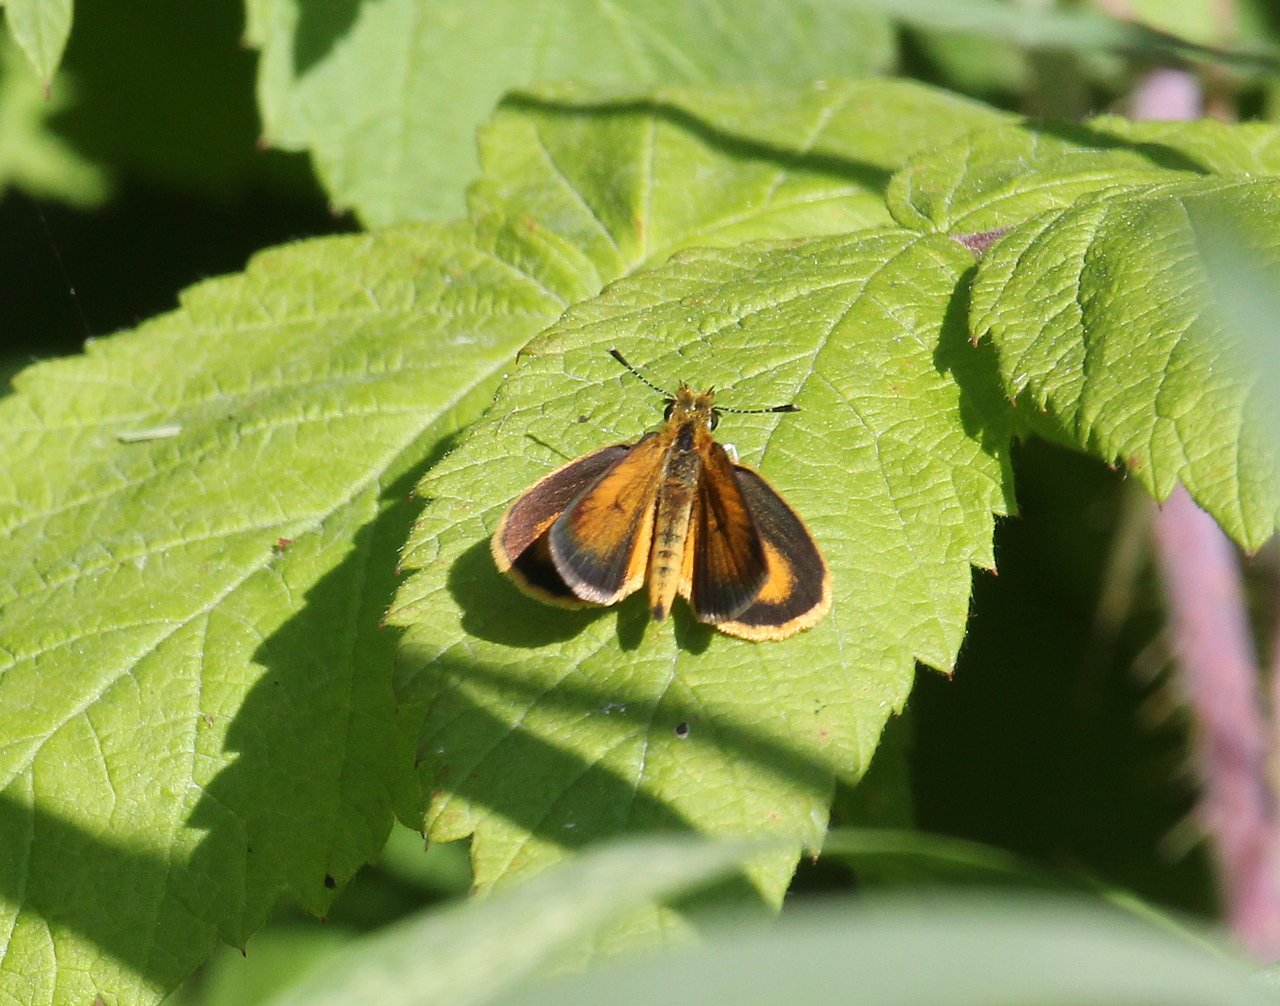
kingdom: Animalia
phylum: Arthropoda
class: Insecta
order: Lepidoptera
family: Hesperiidae
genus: Ancyloxypha
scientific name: Ancyloxypha numitor
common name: Least Skipper
